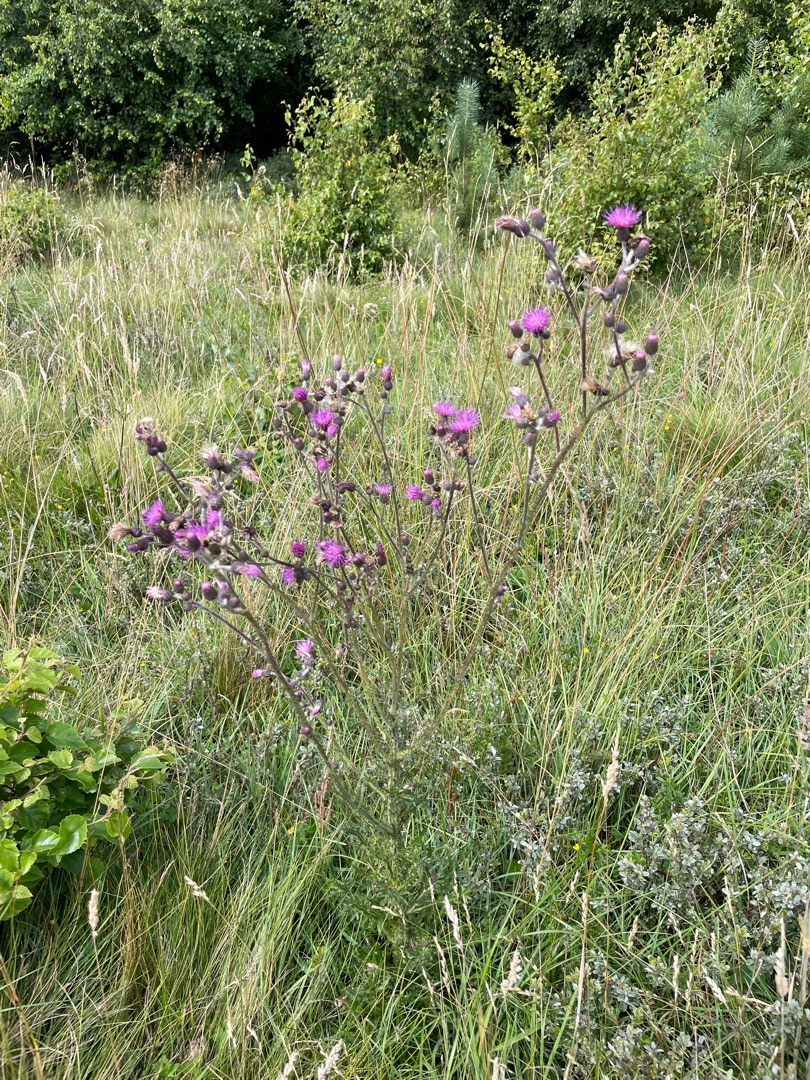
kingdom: Plantae
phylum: Tracheophyta
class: Magnoliopsida
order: Asterales
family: Asteraceae
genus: Cirsium
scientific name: Cirsium palustre
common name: Kær-tidsel
